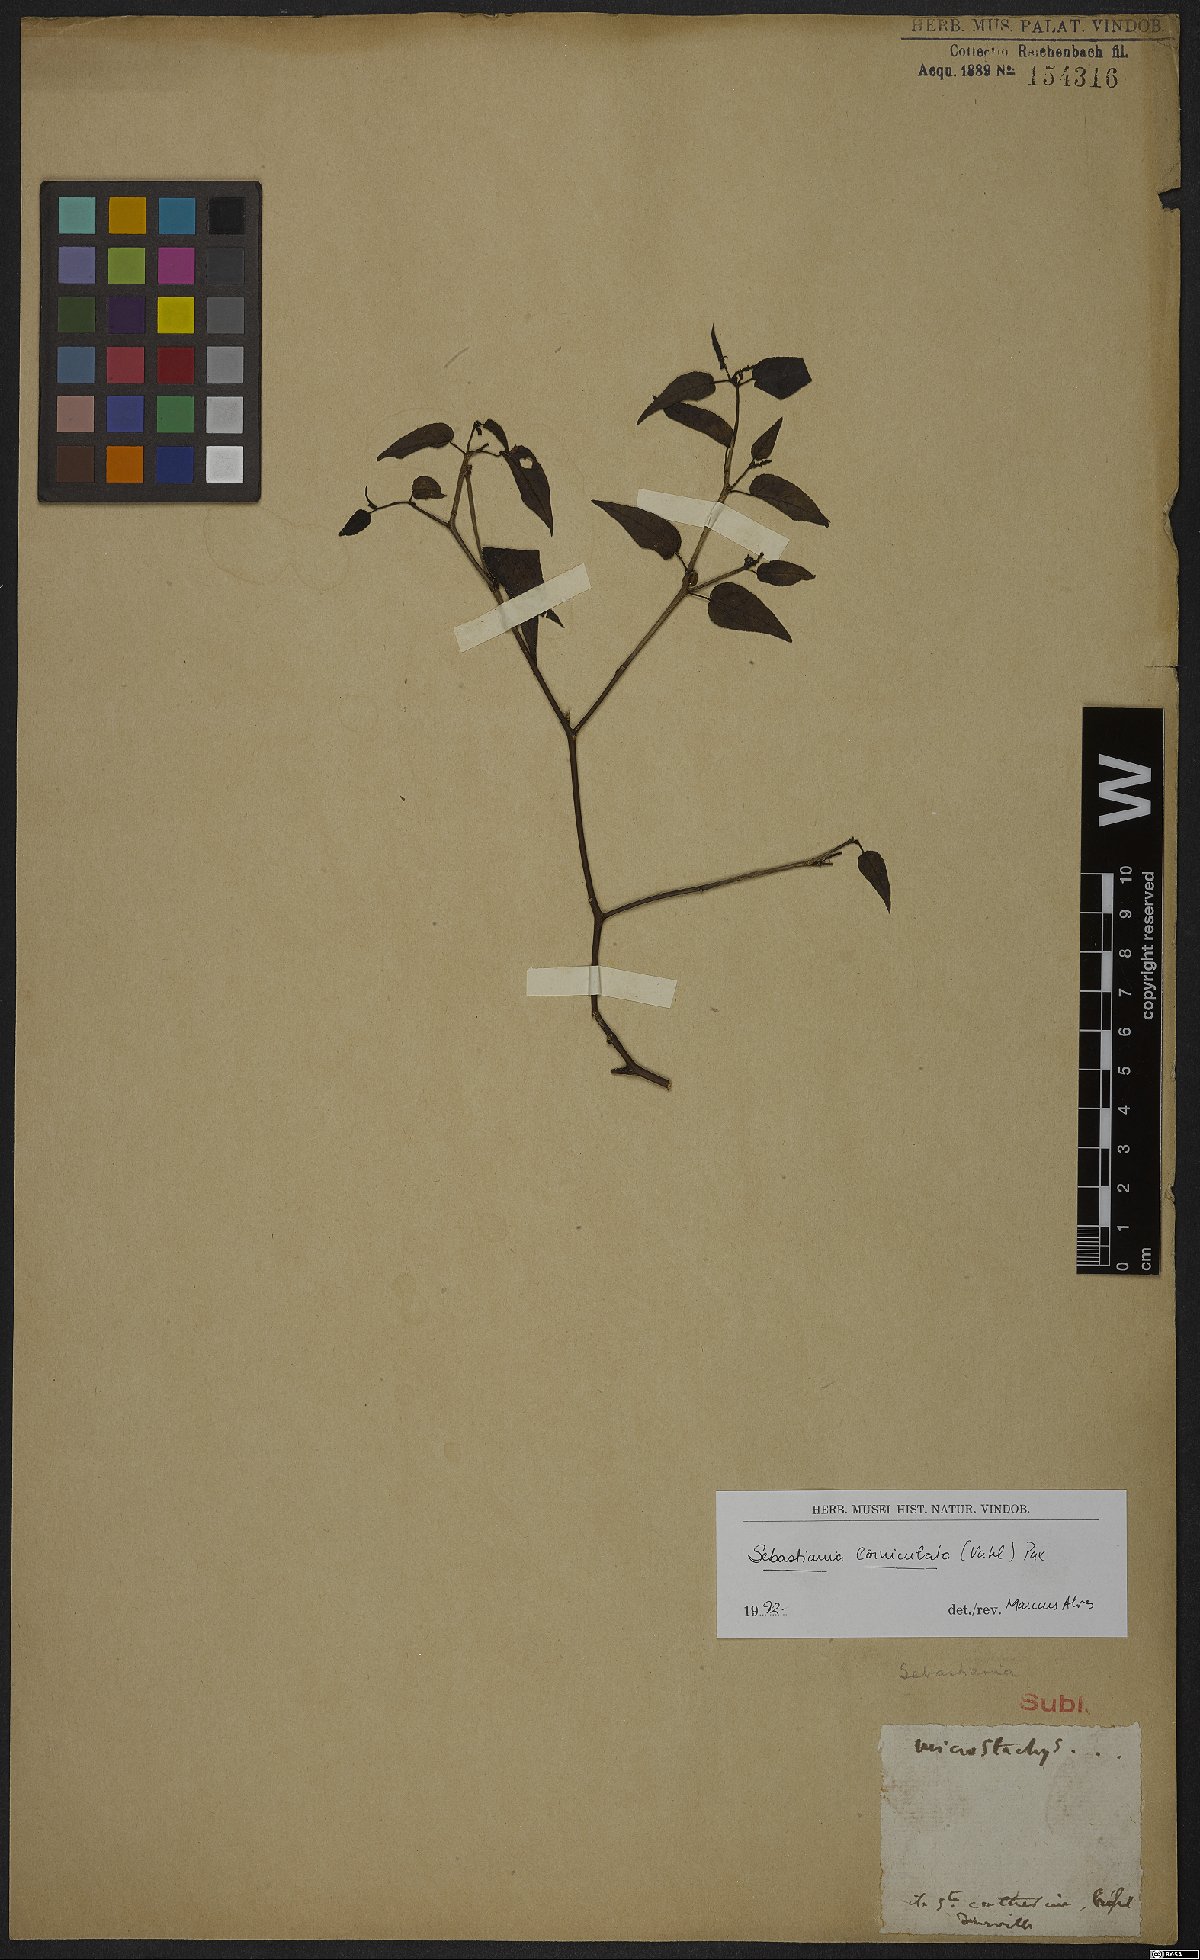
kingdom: Plantae
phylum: Tracheophyta
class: Magnoliopsida
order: Malpighiales
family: Euphorbiaceae
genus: Microstachys
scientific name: Microstachys corniculata
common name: Hato tejas
